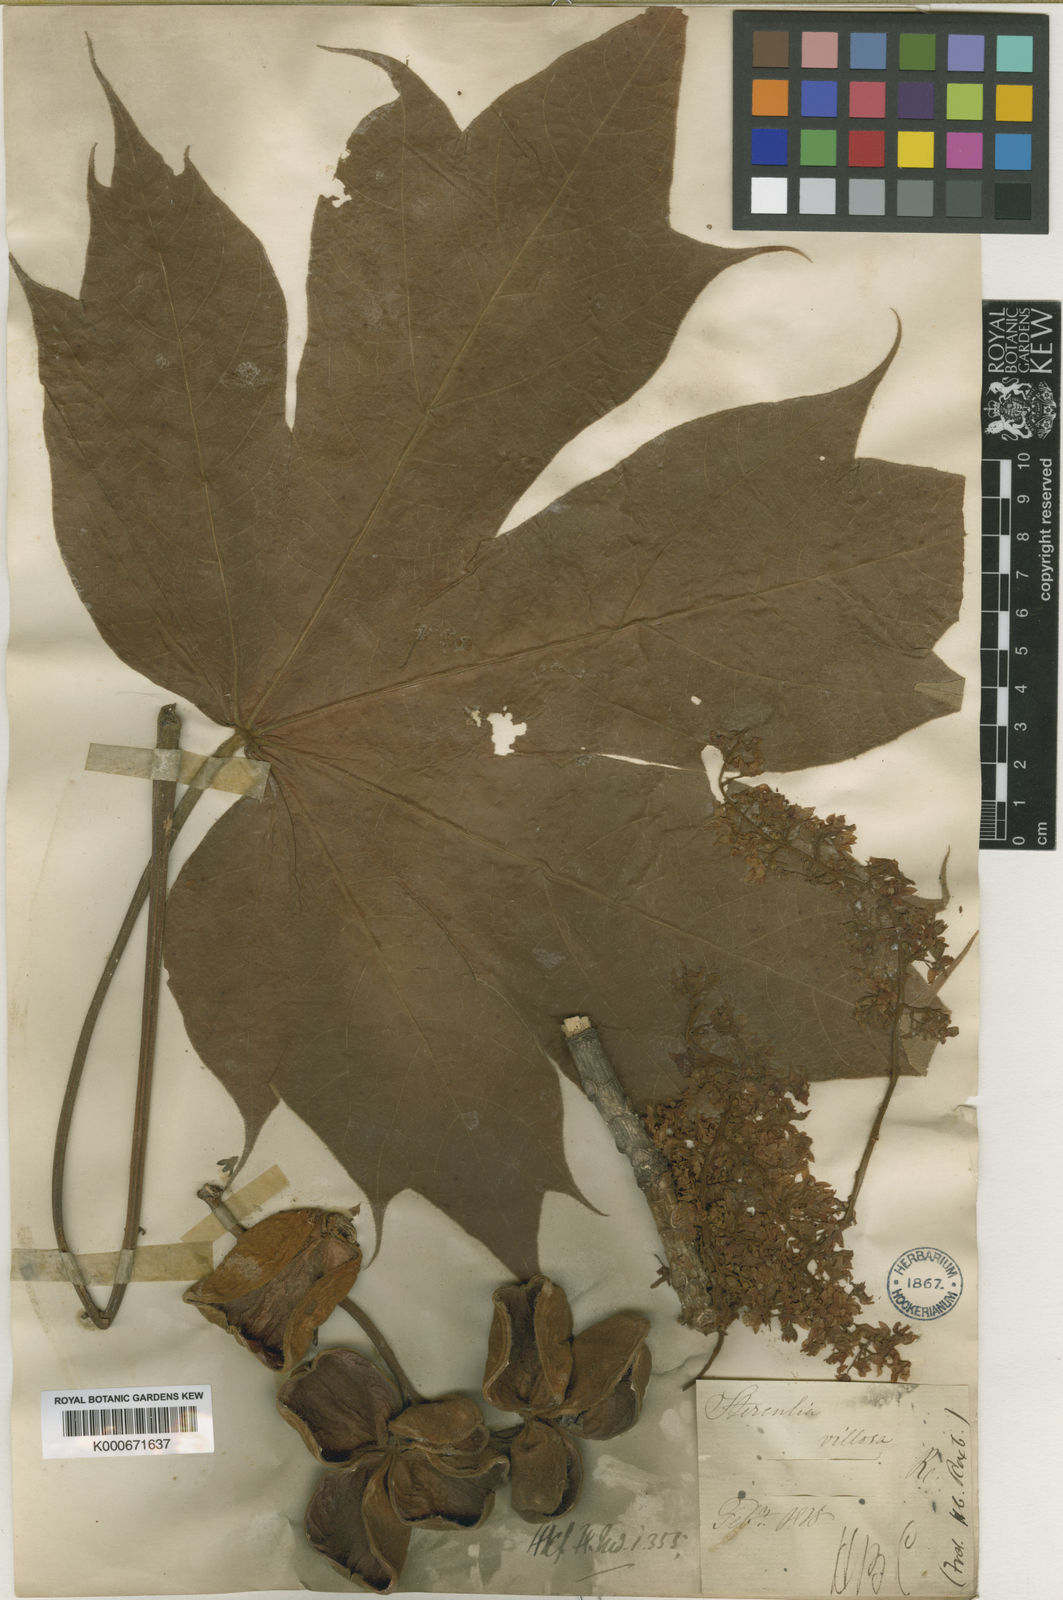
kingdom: Plantae
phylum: Tracheophyta
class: Magnoliopsida
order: Malvales
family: Malvaceae
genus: Sterculia
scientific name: Sterculia
